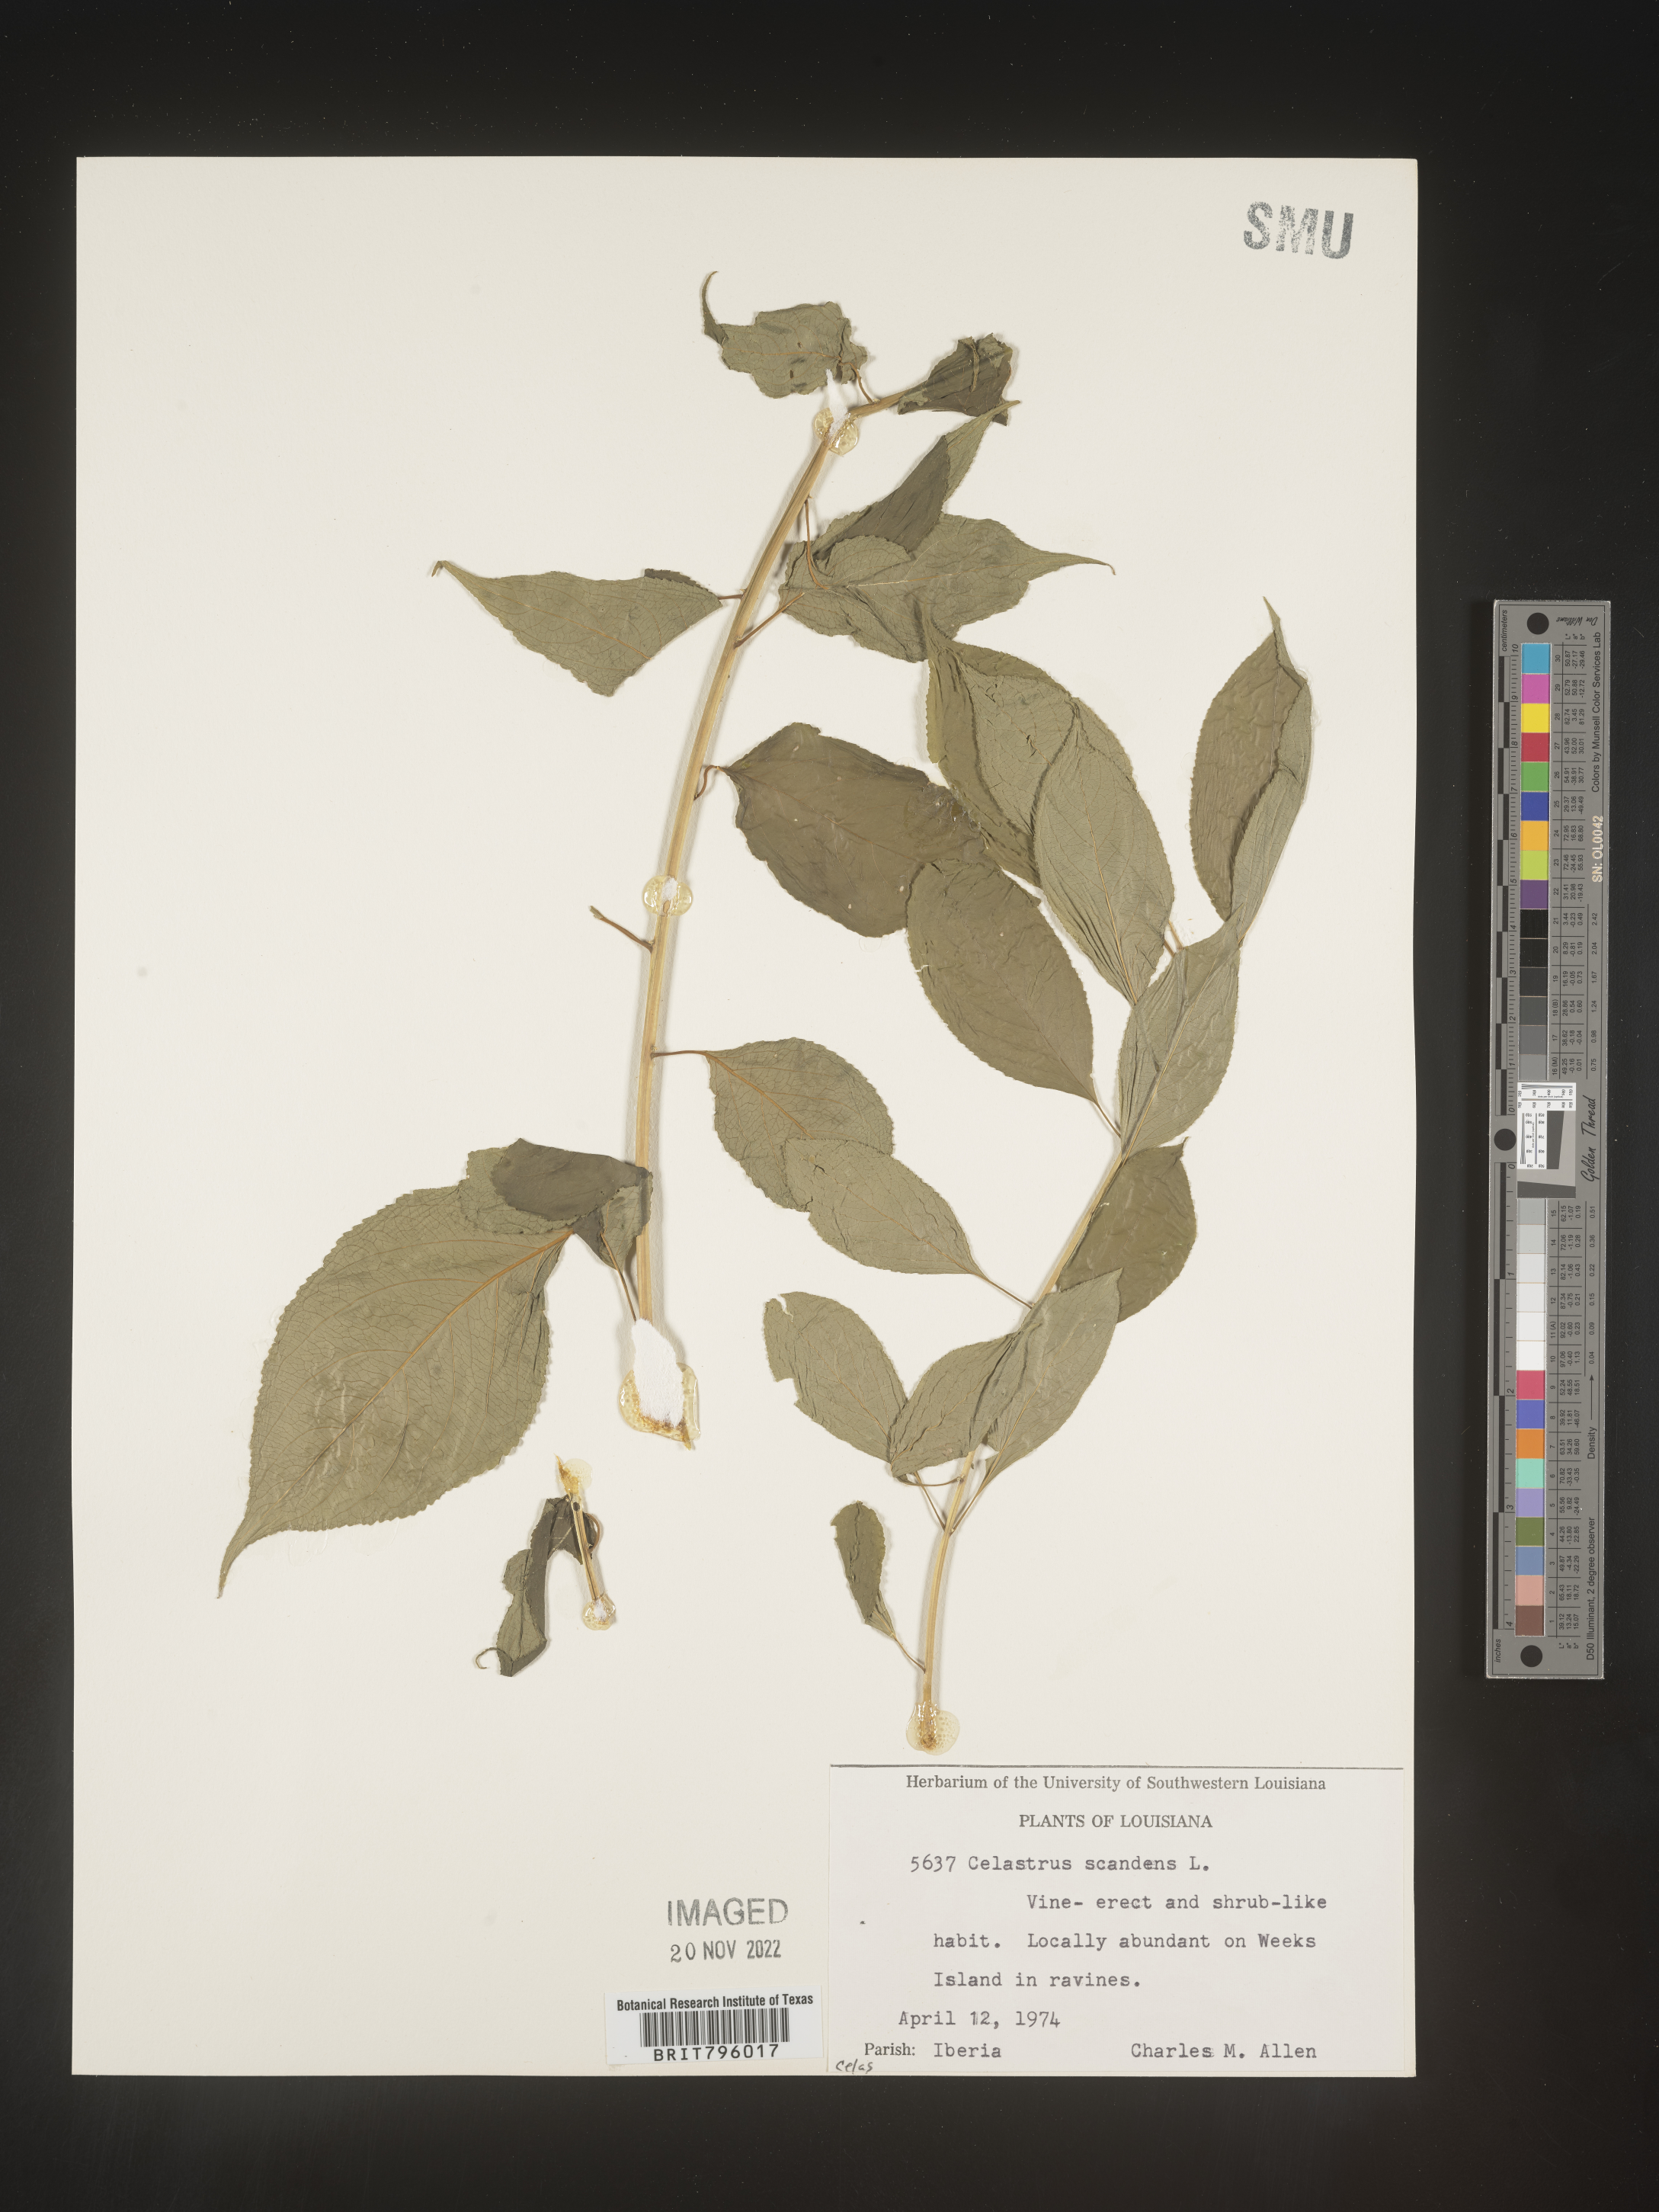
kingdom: Plantae
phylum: Tracheophyta
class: Magnoliopsida
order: Celastrales
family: Celastraceae
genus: Celastrus
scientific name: Celastrus scandens
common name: American bittersweet
